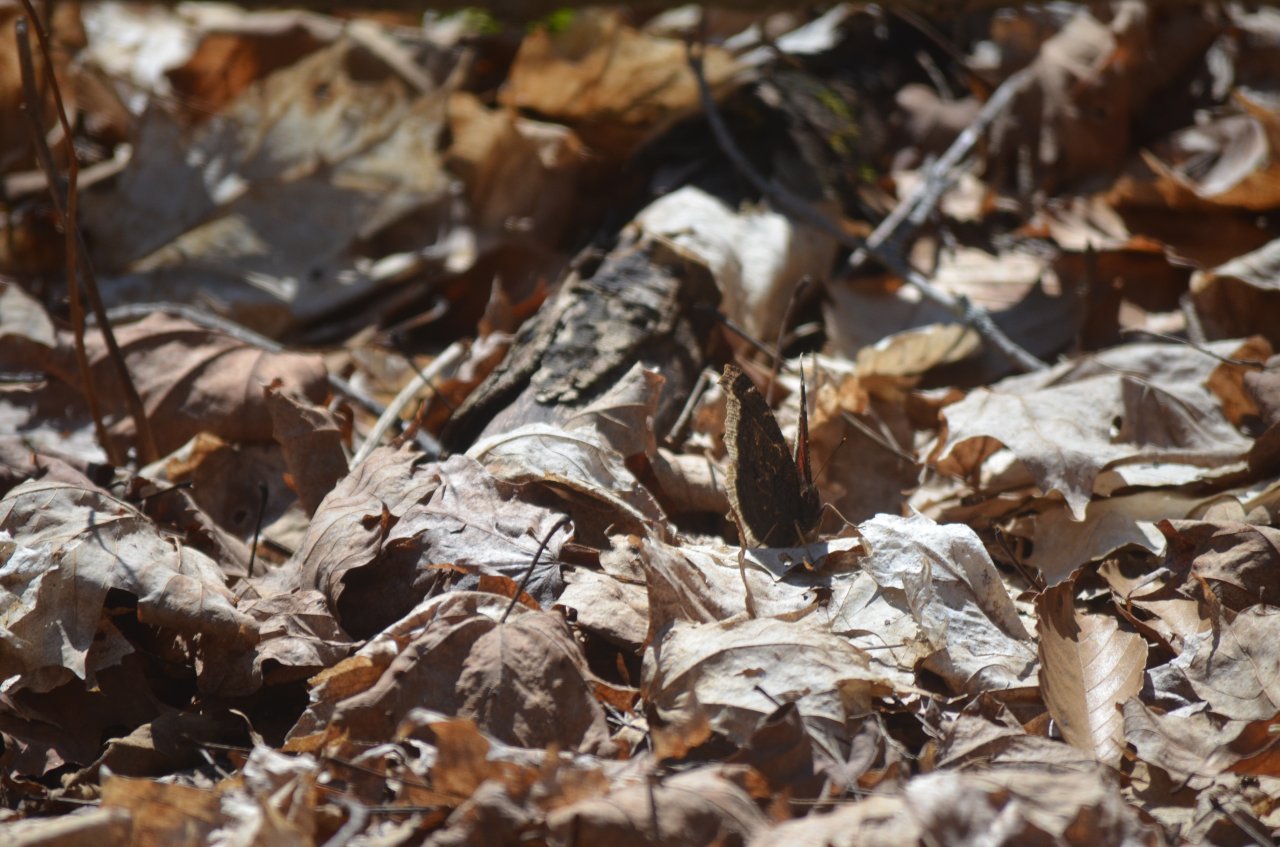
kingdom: Animalia
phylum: Arthropoda
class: Insecta
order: Lepidoptera
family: Nymphalidae
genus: Nymphalis
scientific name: Nymphalis antiopa
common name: Mourning Cloak
